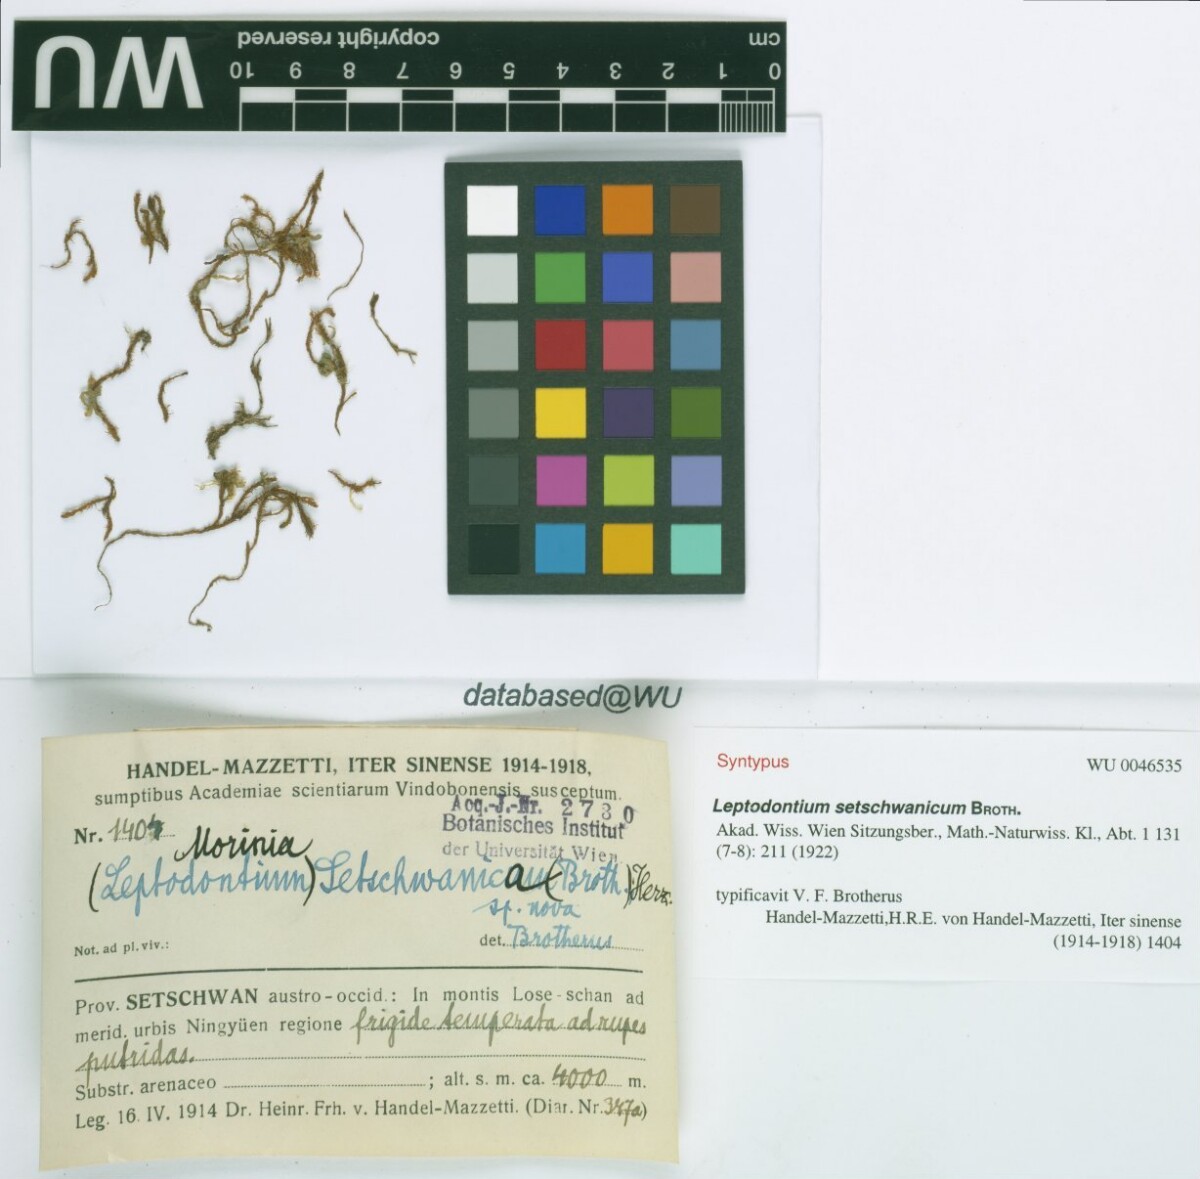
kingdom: Plantae
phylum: Bryophyta
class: Bryopsida
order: Pottiales
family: Pottiaceae
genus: Geheebia
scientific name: Geheebia erosodenticulata
